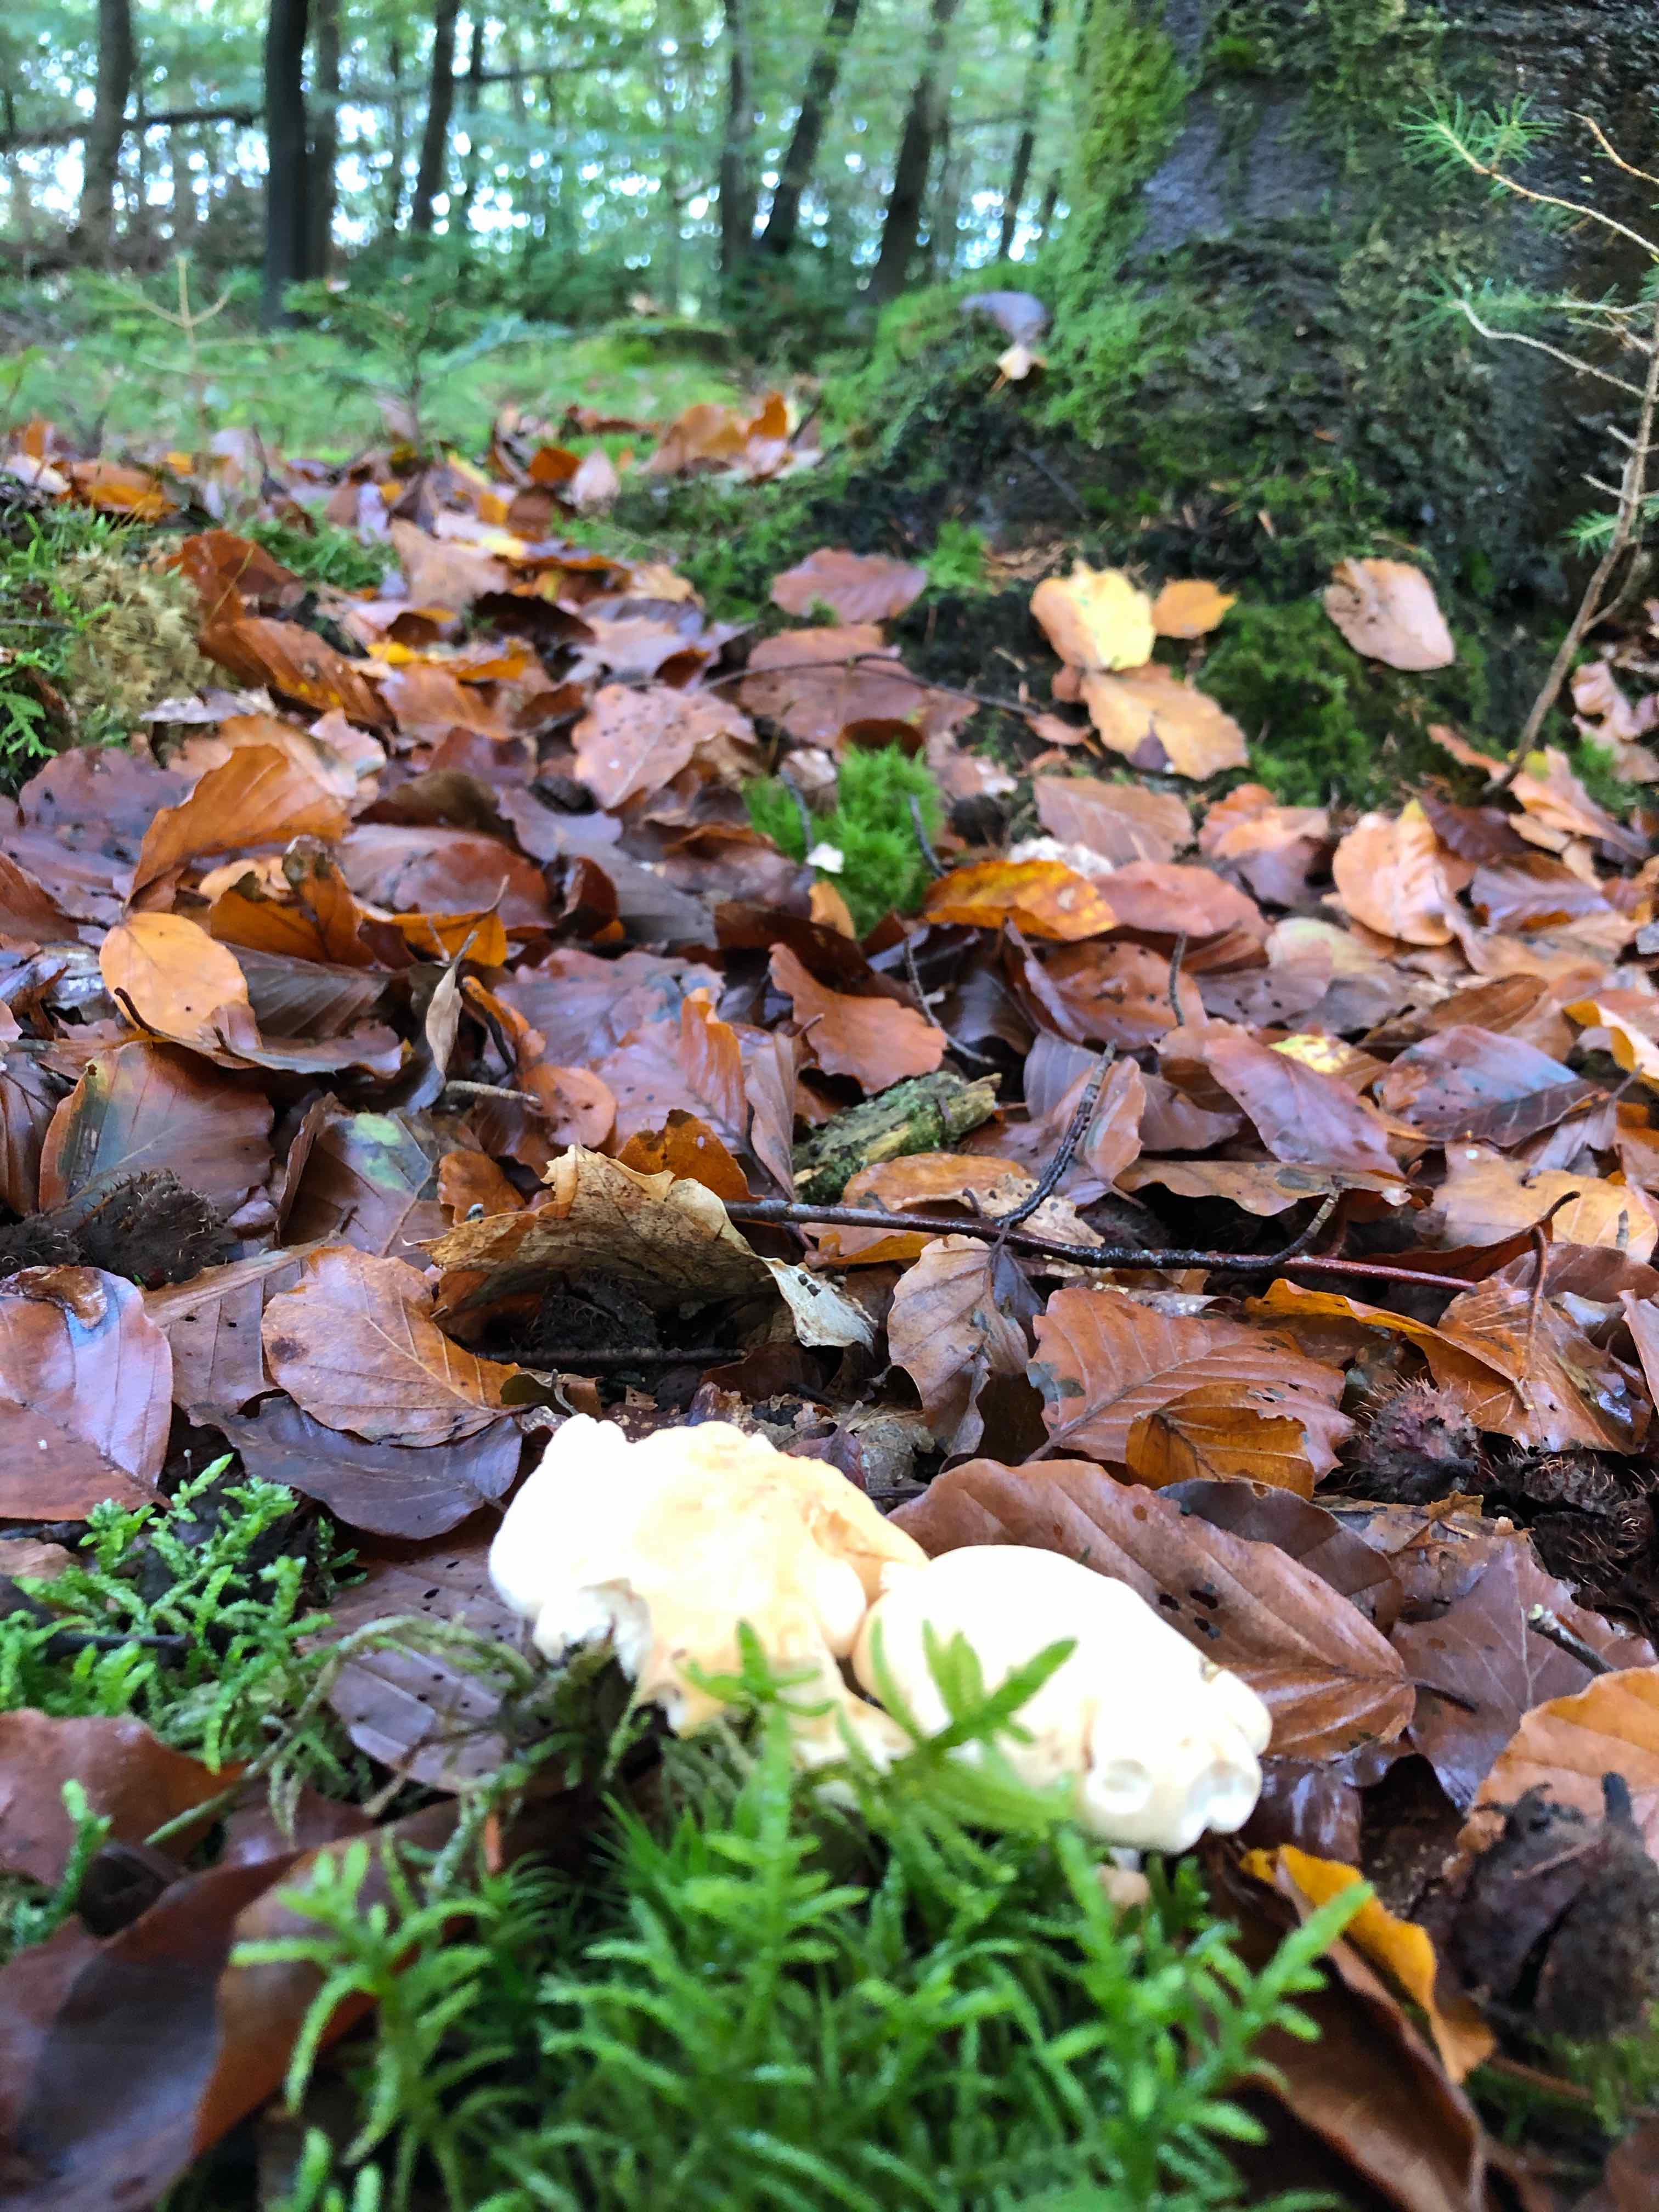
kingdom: Fungi
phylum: Basidiomycota
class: Agaricomycetes
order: Cantharellales
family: Hydnaceae
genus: Hydnum
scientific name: Hydnum
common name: pigsvamp
